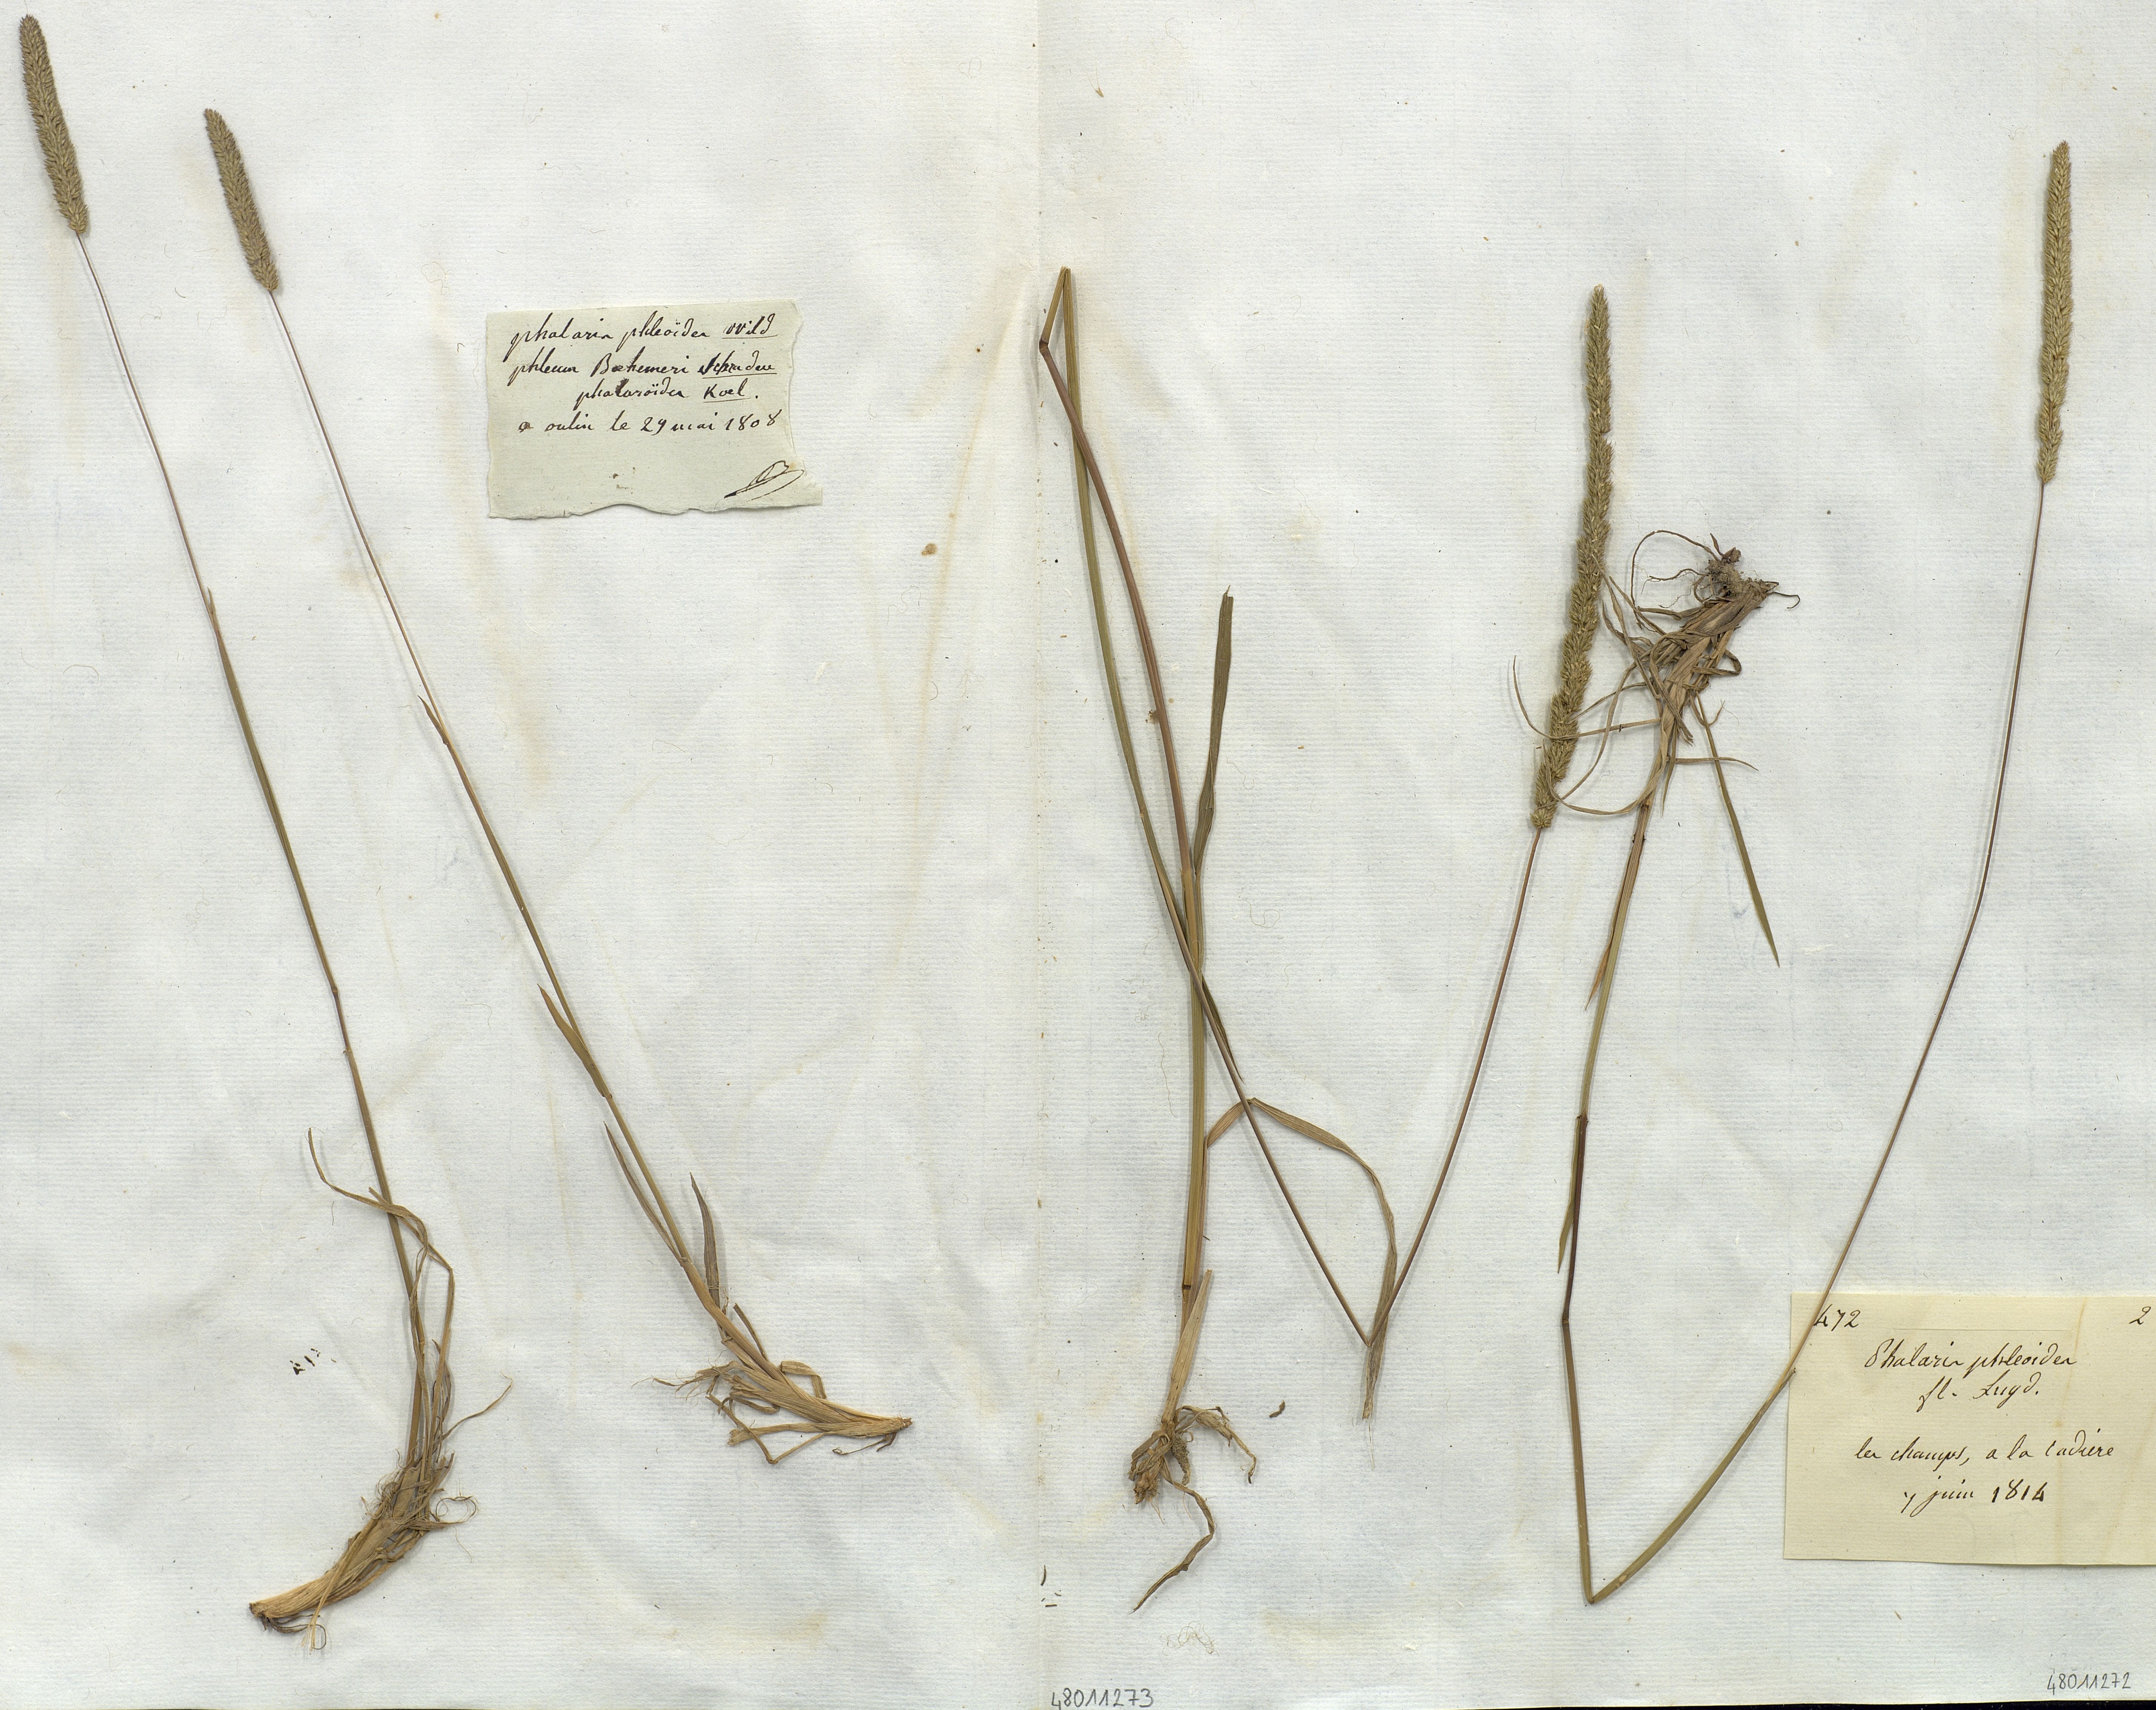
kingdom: Plantae
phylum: Tracheophyta
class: Liliopsida
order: Poales
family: Poaceae
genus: Phalaris
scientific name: Phalaris phleoides
